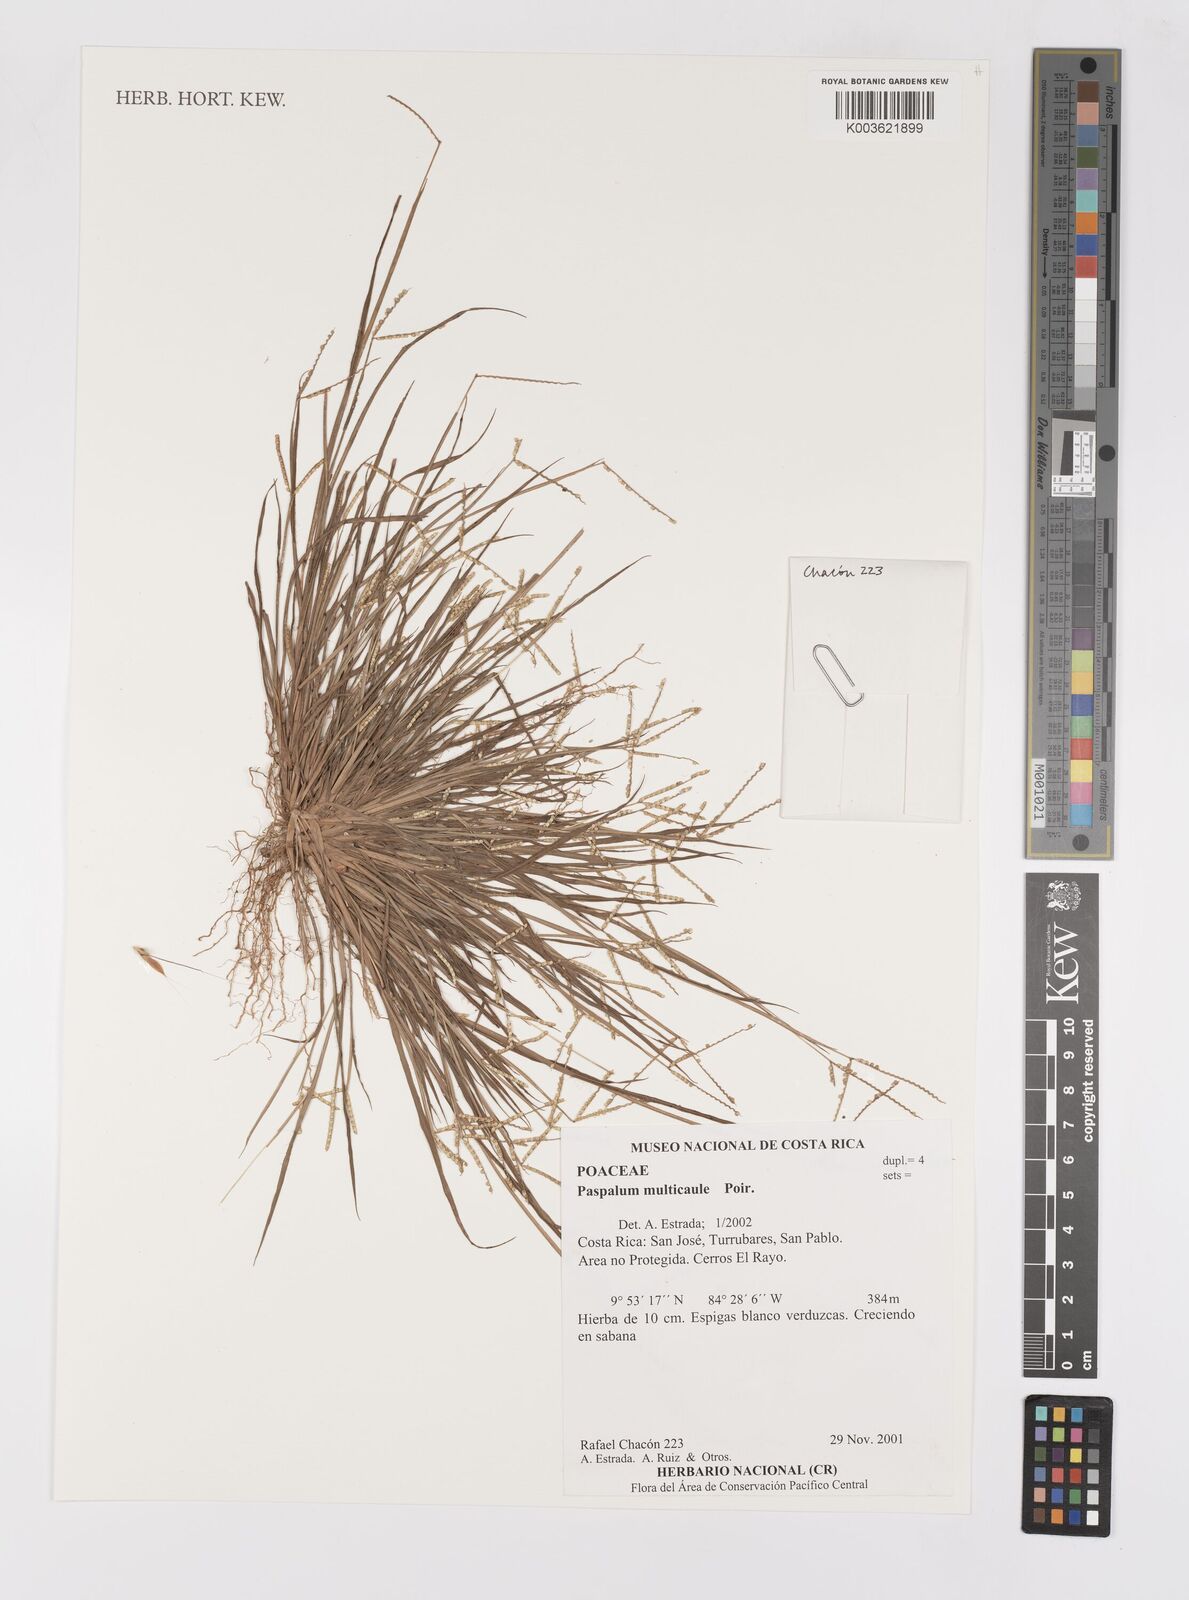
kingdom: Plantae
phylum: Tracheophyta
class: Liliopsida
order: Poales
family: Poaceae
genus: Paspalum
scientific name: Paspalum multicaule
